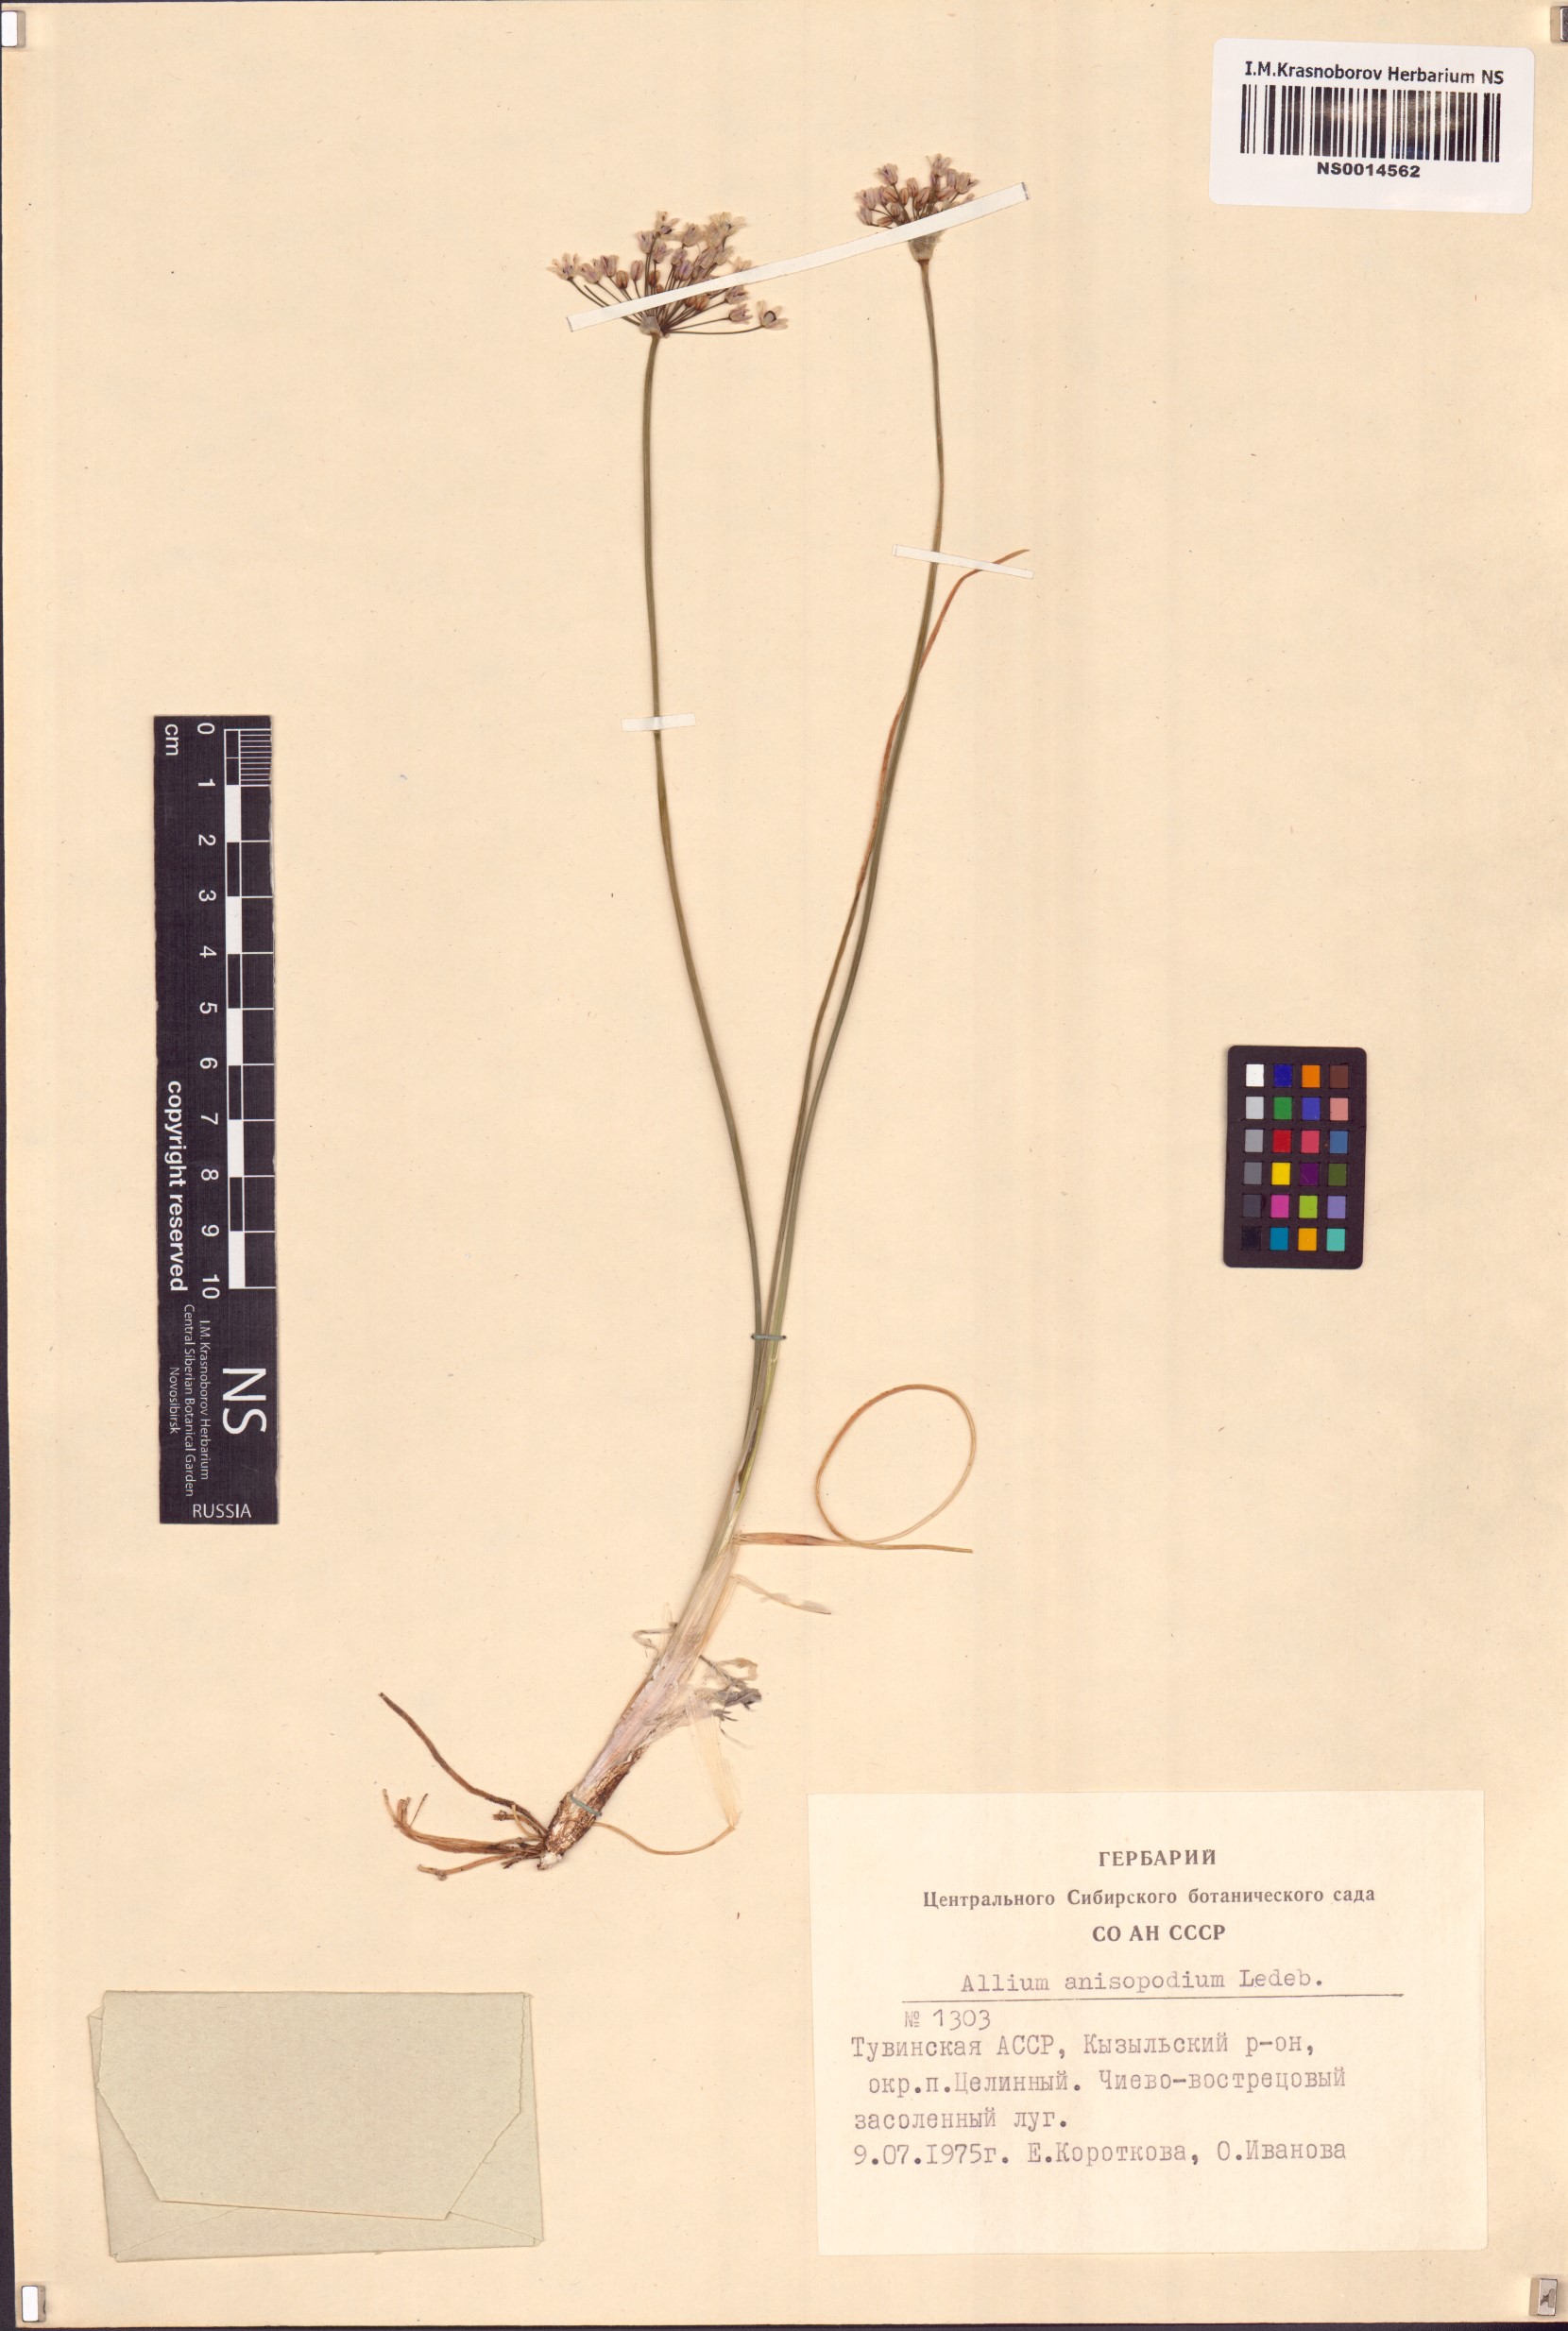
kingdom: Plantae
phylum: Tracheophyta
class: Liliopsida
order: Asparagales
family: Amaryllidaceae
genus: Allium
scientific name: Allium anisopodium
